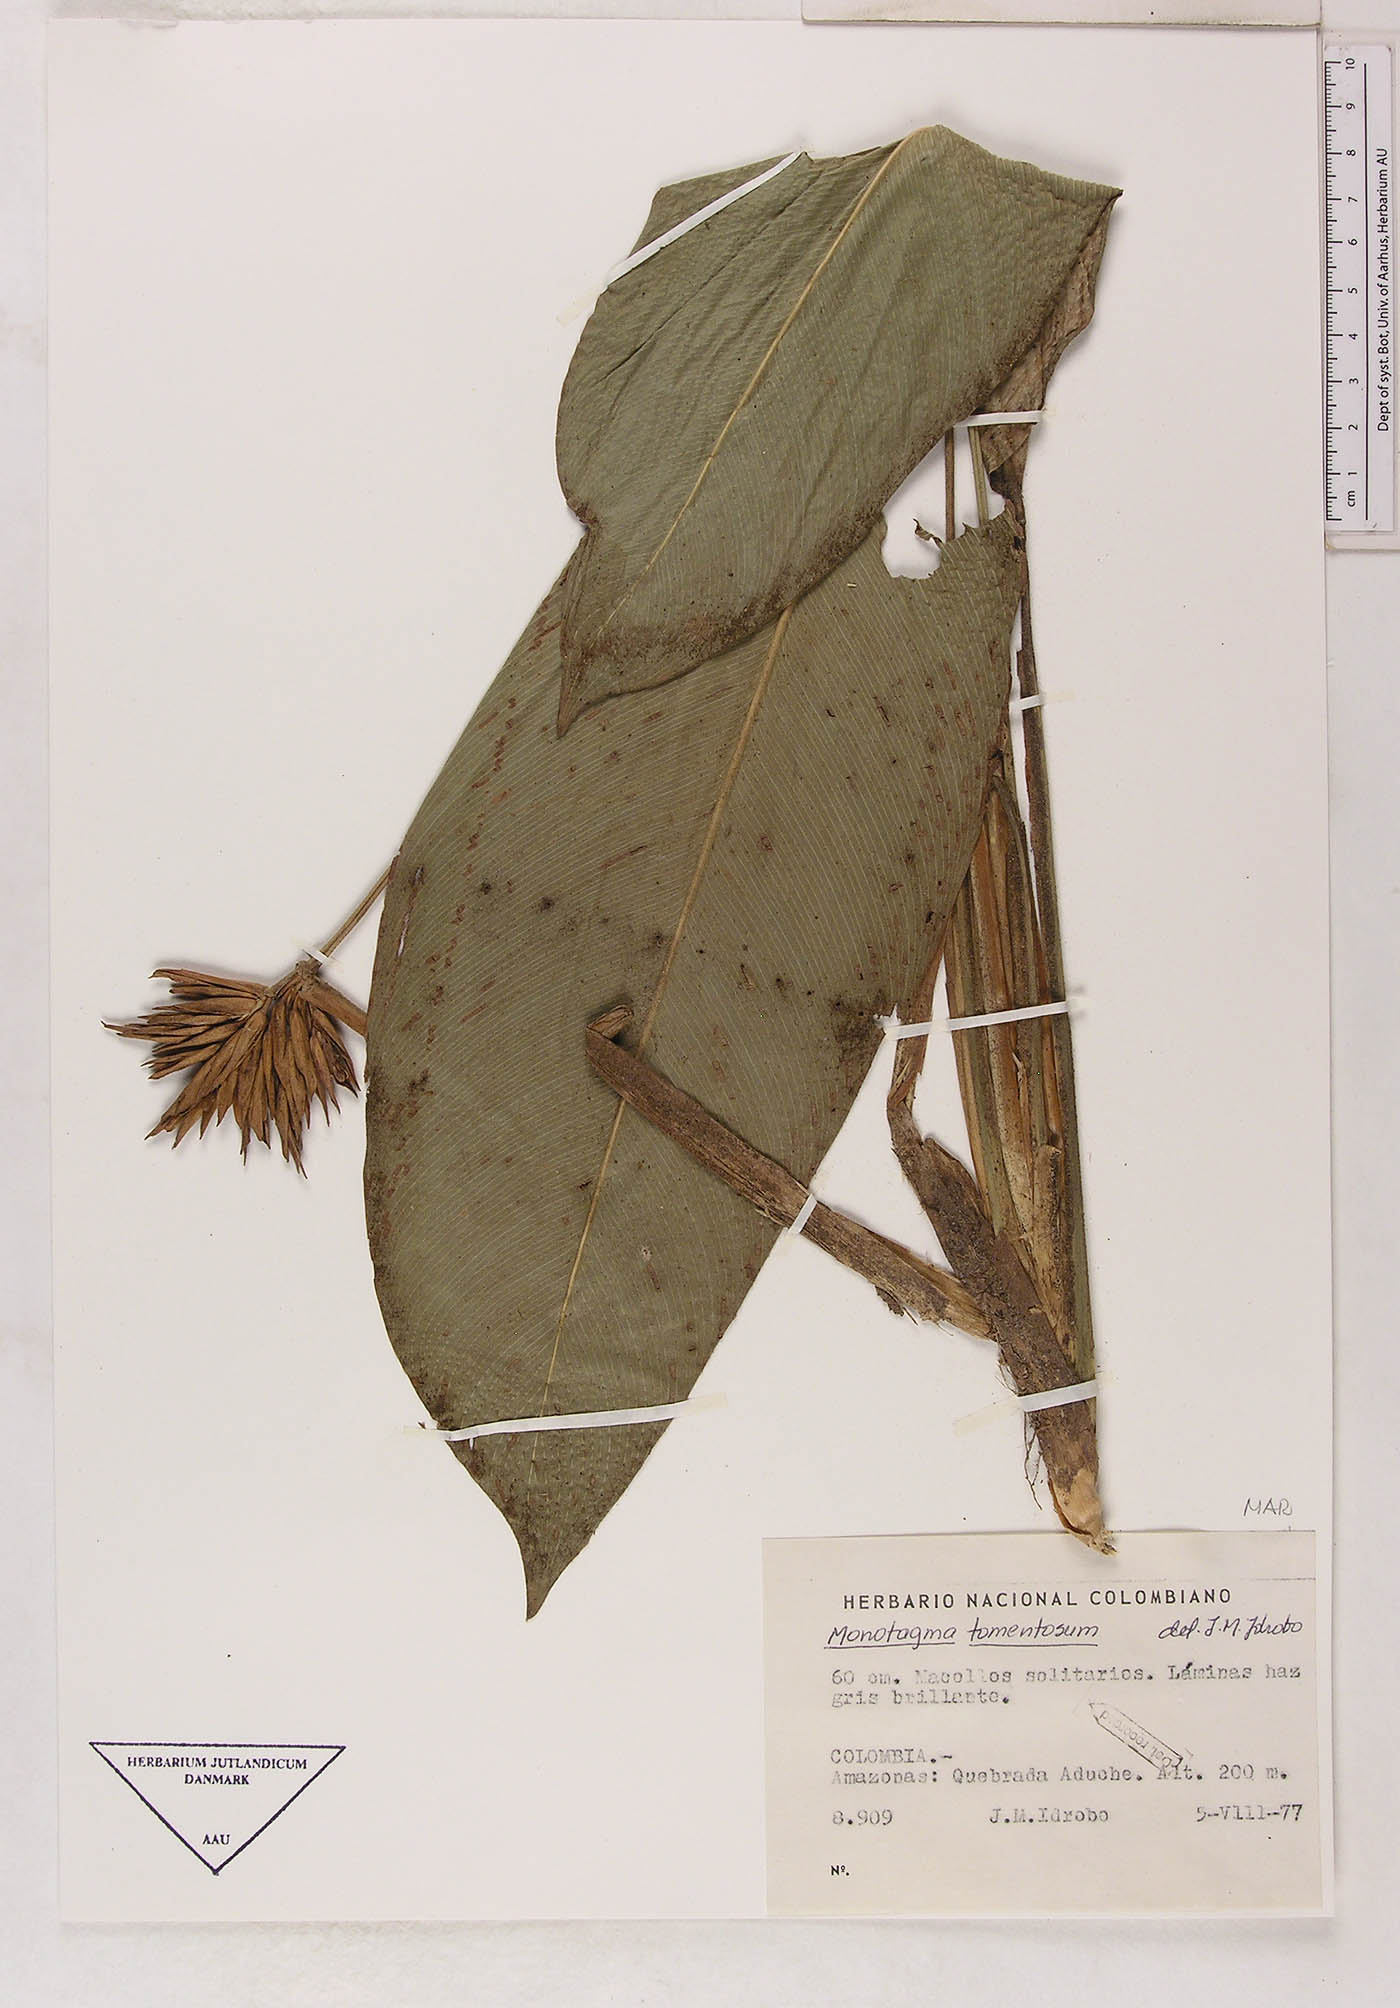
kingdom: Plantae
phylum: Tracheophyta
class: Liliopsida
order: Zingiberales
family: Marantaceae
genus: Monotagma
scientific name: Monotagma tomentosum
